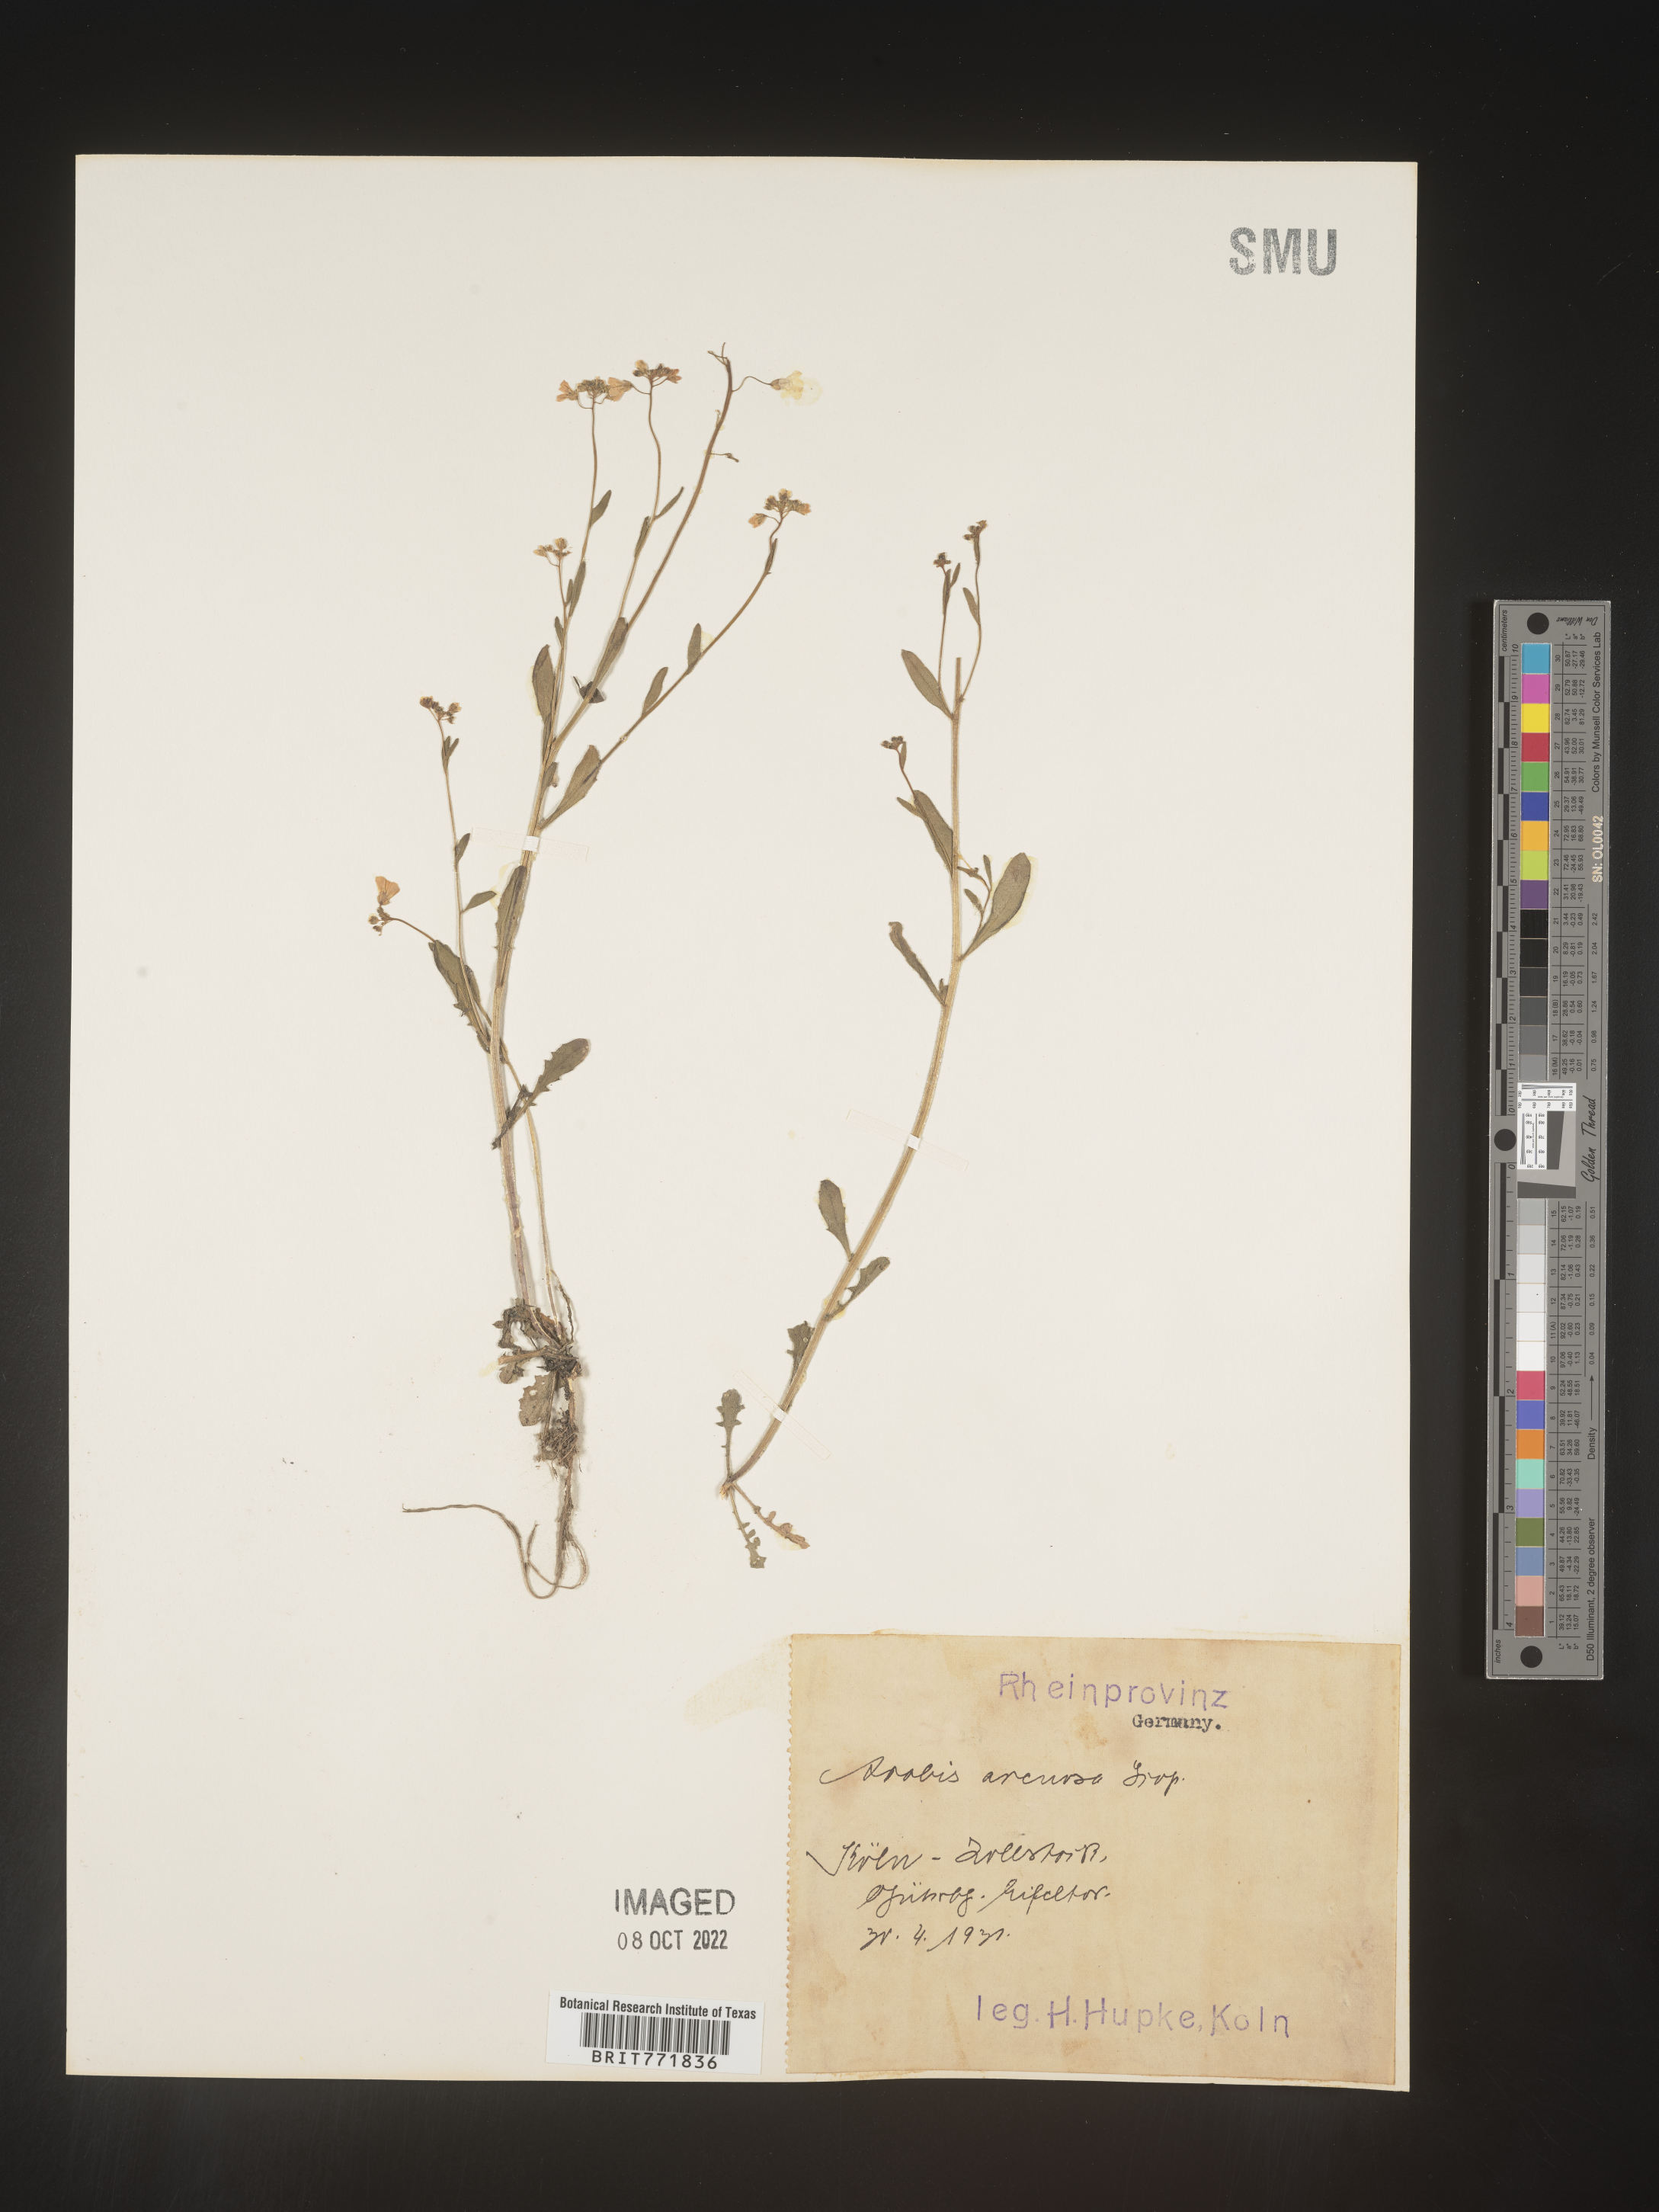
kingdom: Plantae
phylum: Tracheophyta
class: Magnoliopsida
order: Brassicales
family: Brassicaceae
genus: Arabis
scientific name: Arabis
